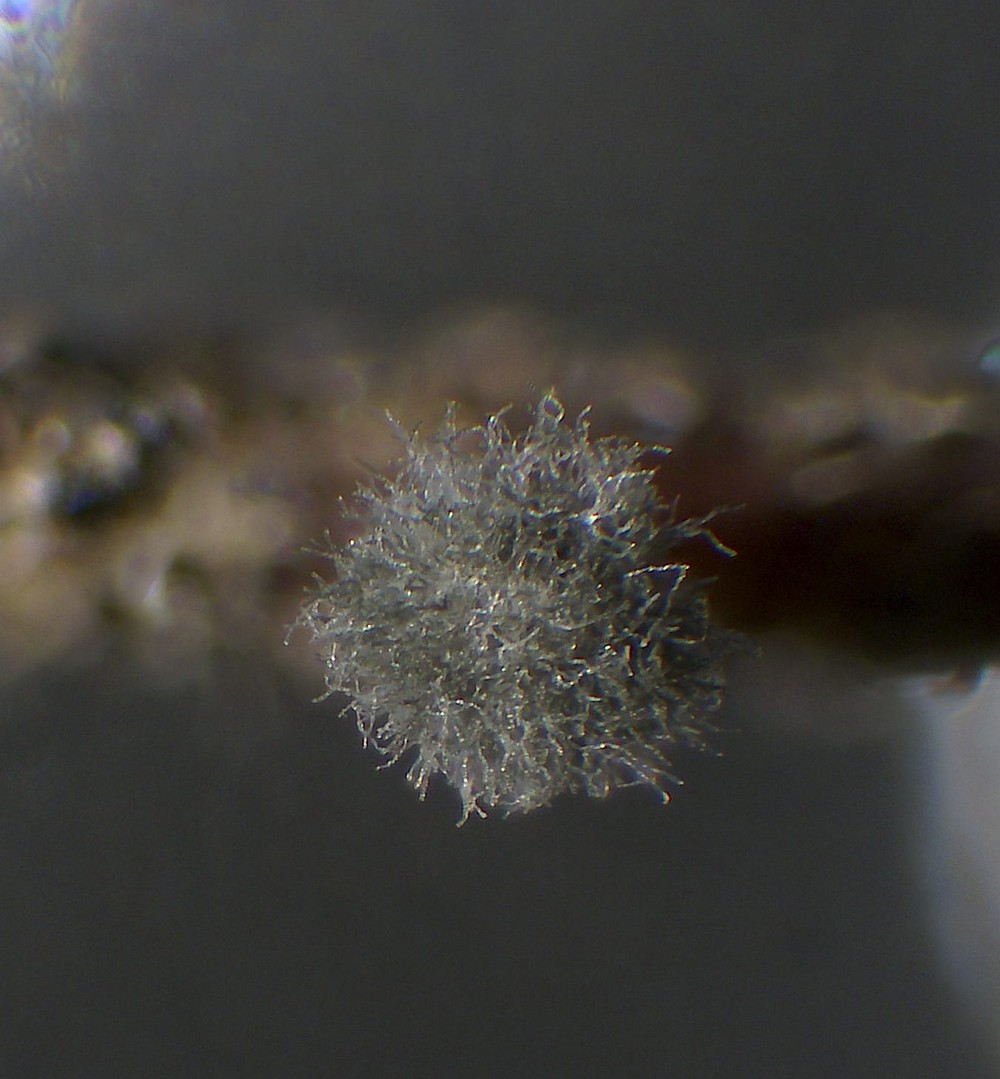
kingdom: Fungi
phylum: Ascomycota
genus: Coremiella
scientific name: Coremiella cubispora
